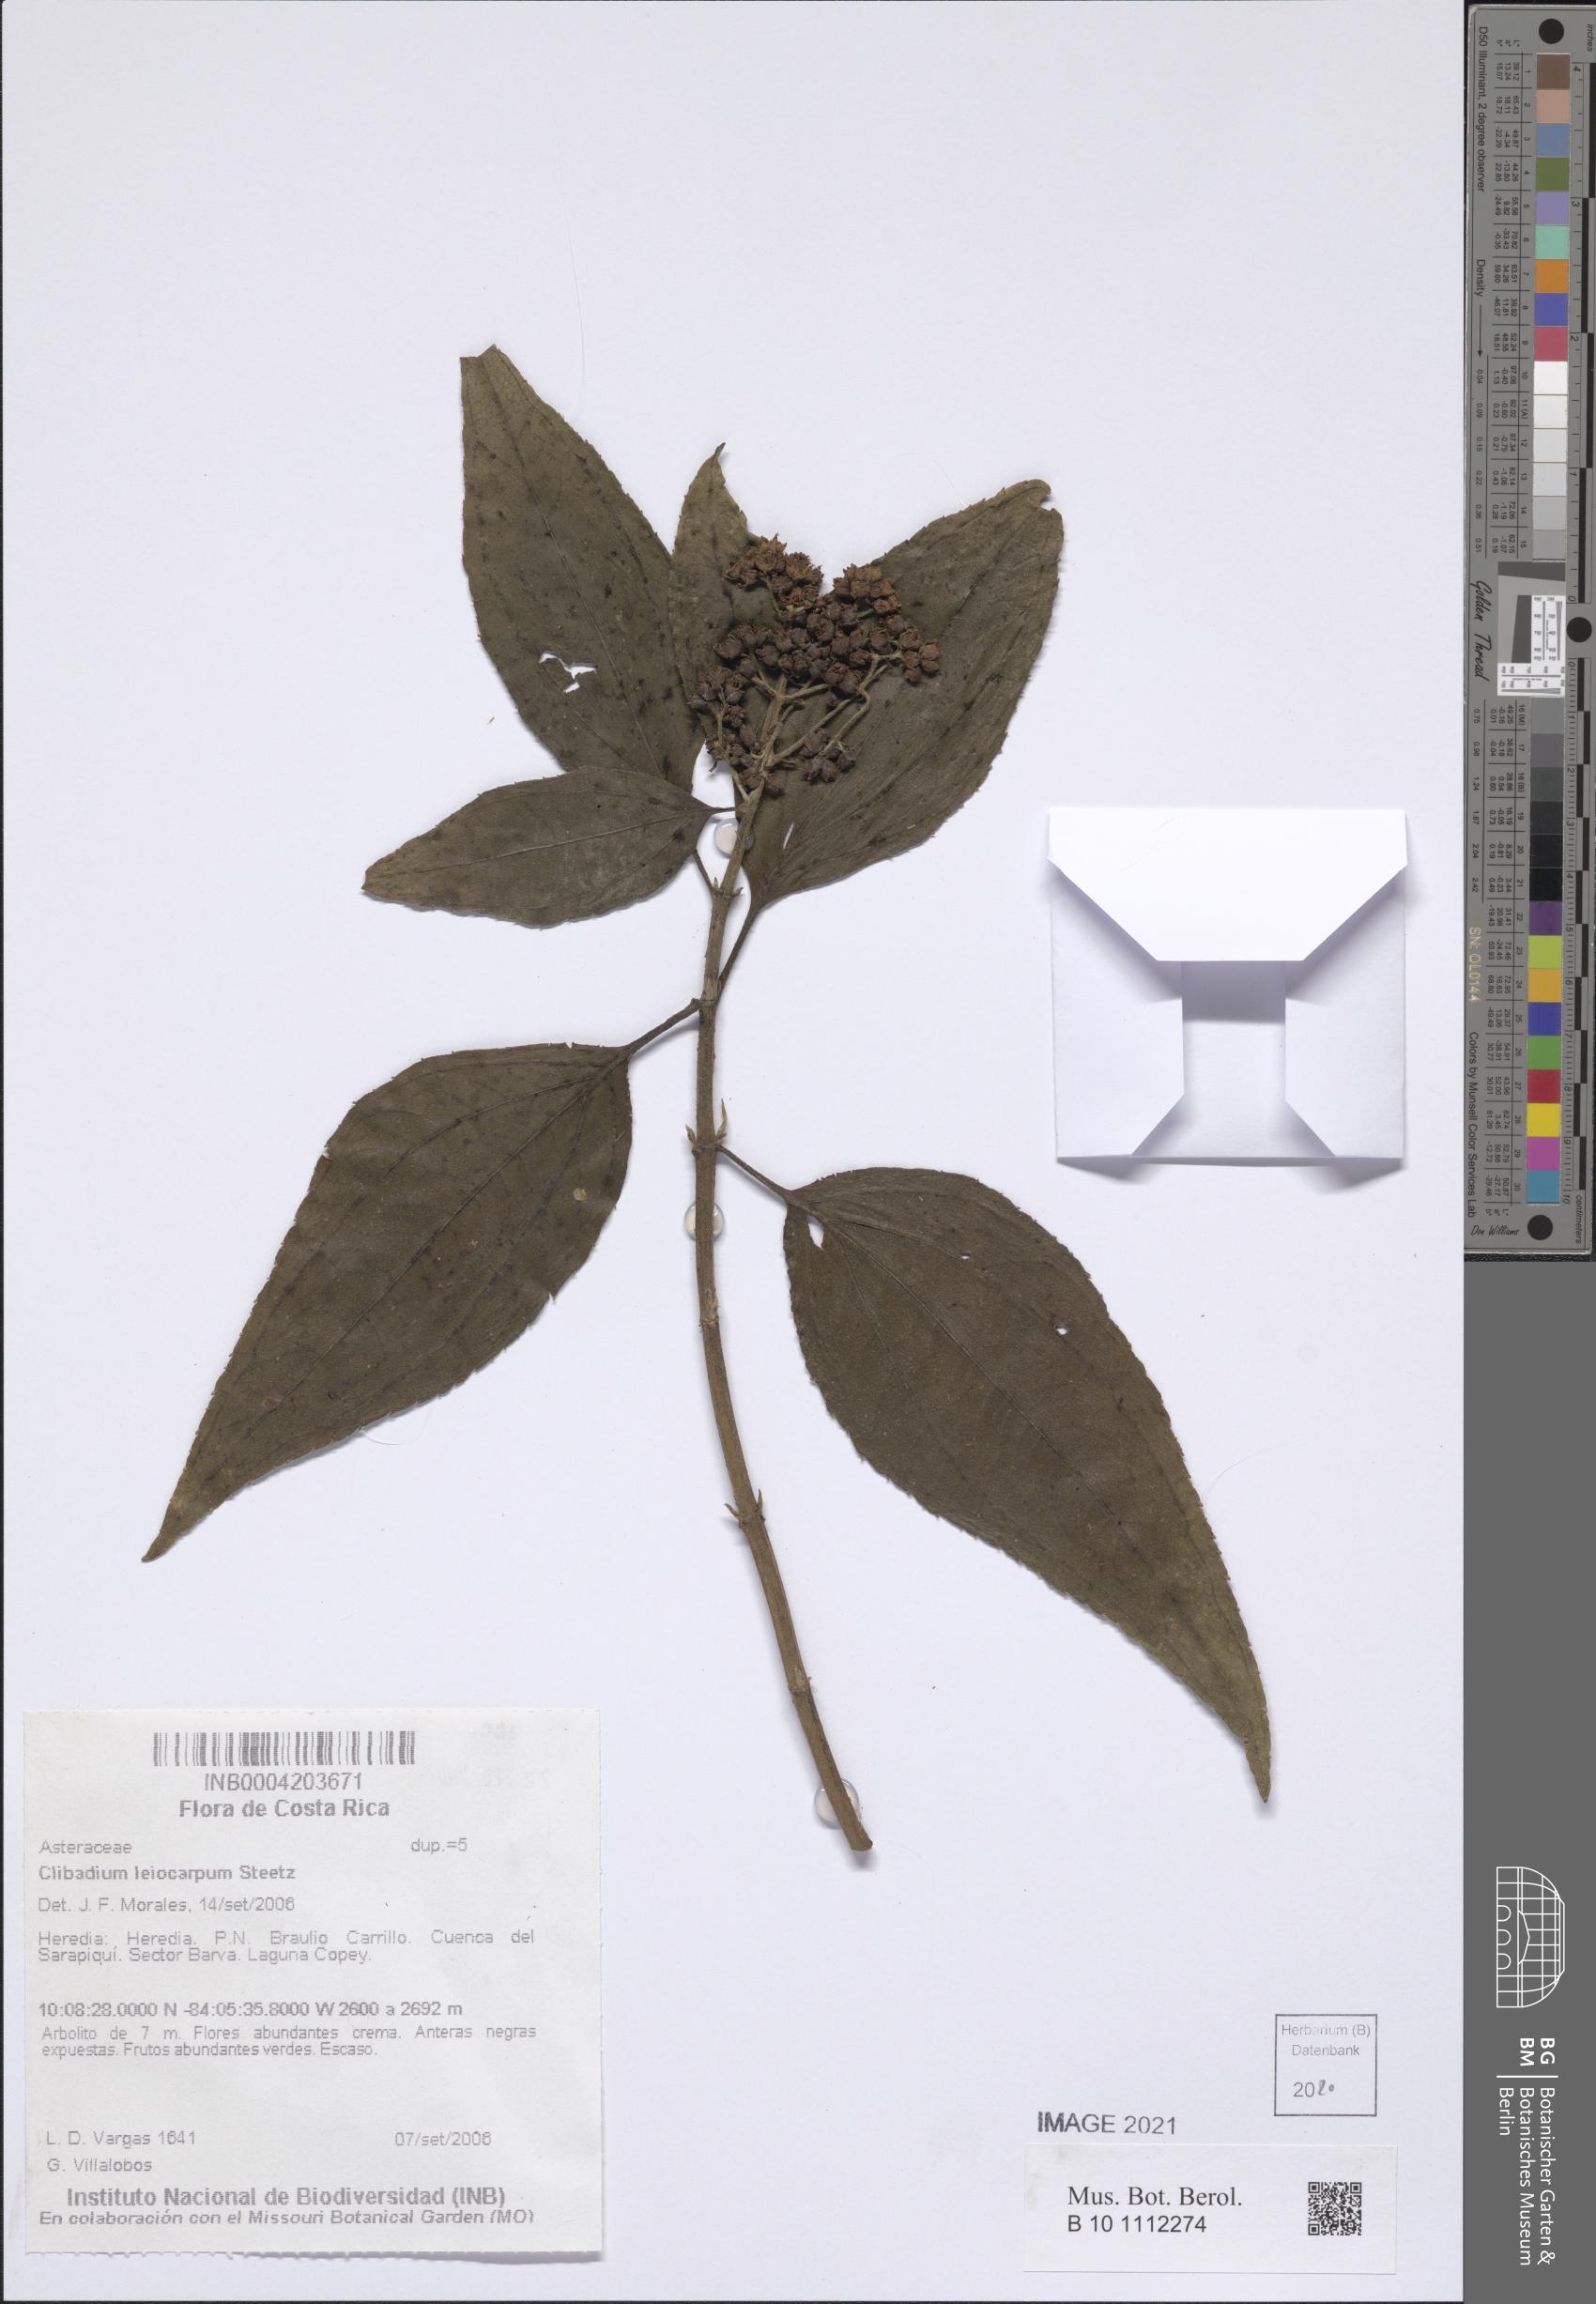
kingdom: Plantae
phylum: Tracheophyta
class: Magnoliopsida
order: Asterales
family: Asteraceae
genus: Clibadium
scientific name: Clibadium leiocarpum
